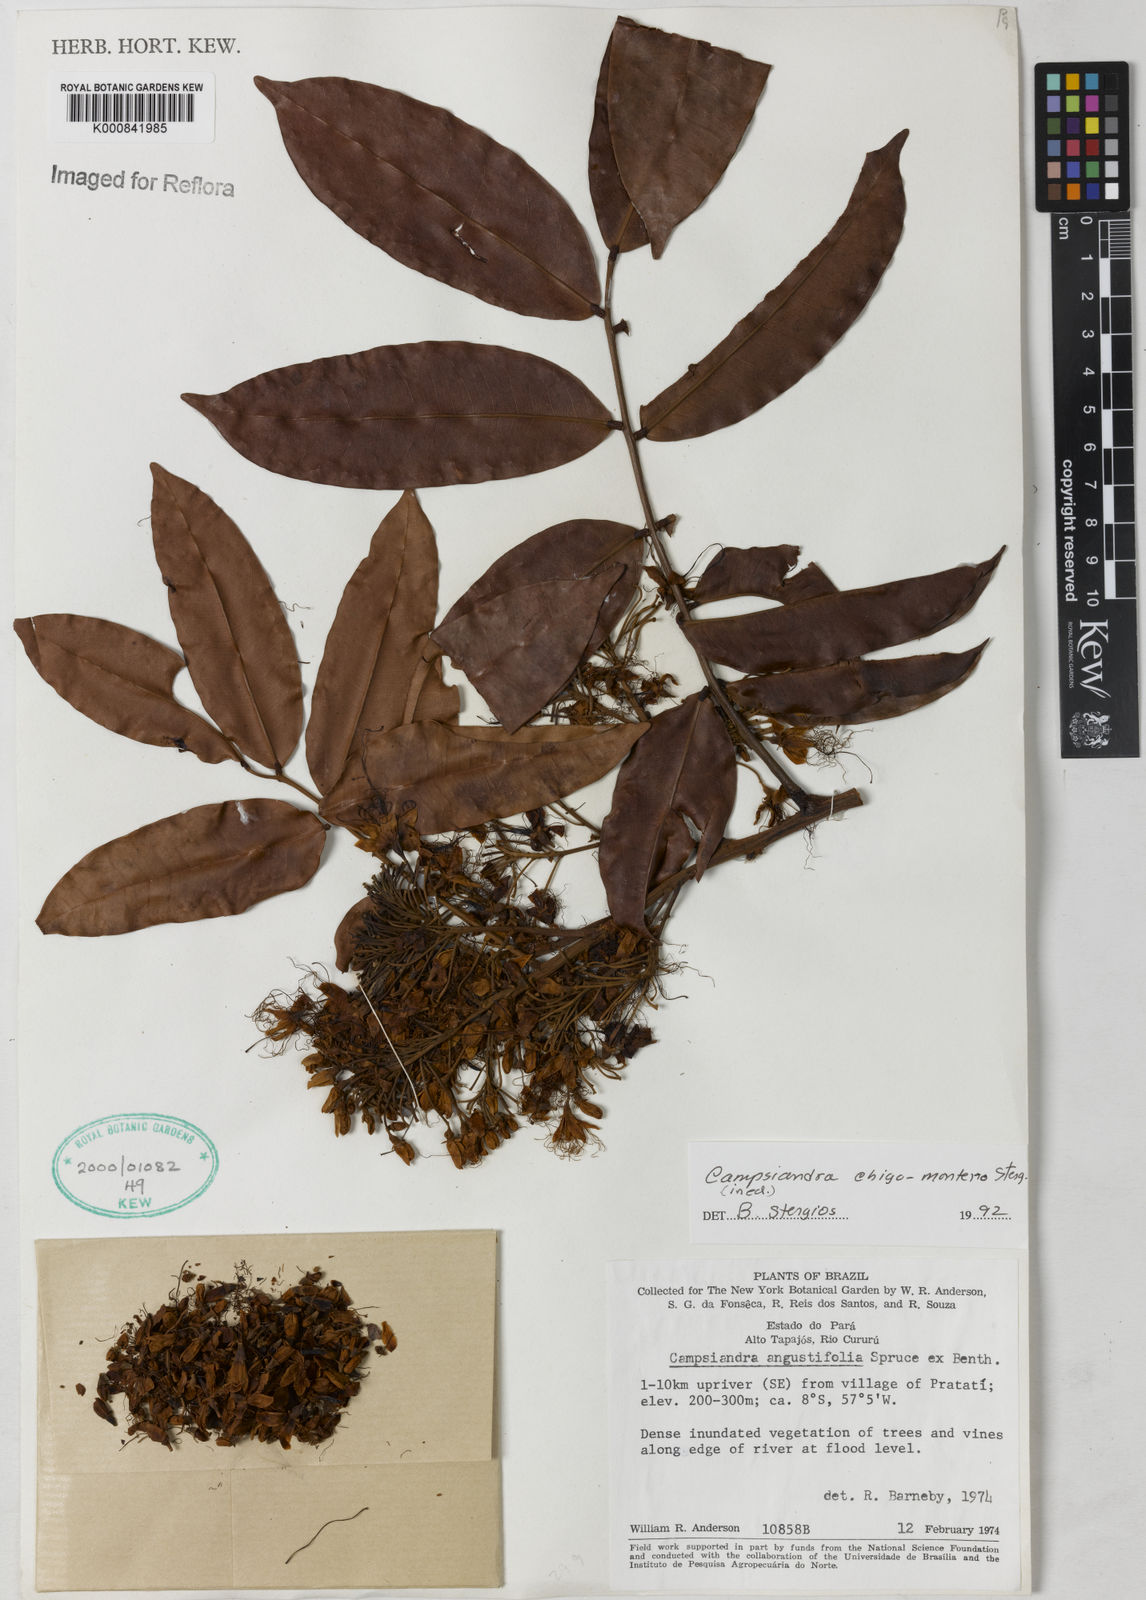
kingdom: Plantae
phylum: Tracheophyta
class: Magnoliopsida
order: Fabales
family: Fabaceae
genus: Campsiandra
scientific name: Campsiandra chigo-montero
